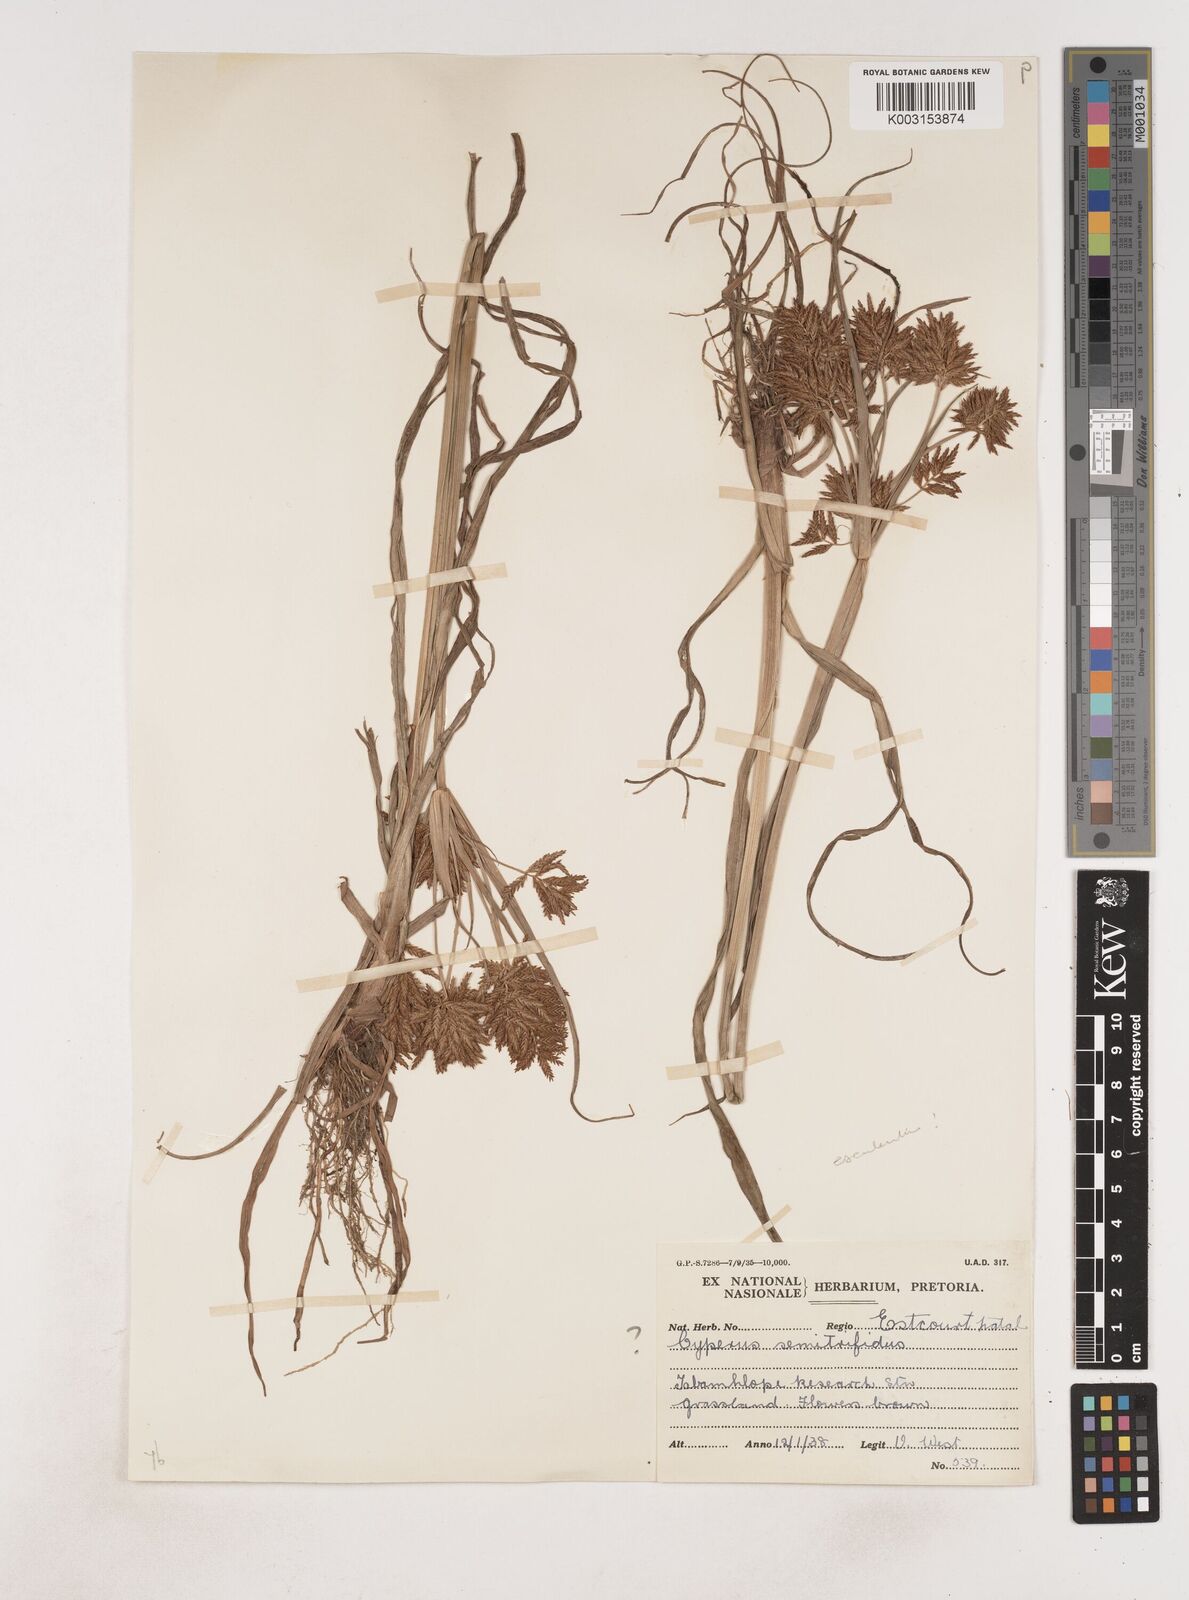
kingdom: Plantae
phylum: Tracheophyta
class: Liliopsida
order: Poales
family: Cyperaceae
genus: Cyperus
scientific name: Cyperus
